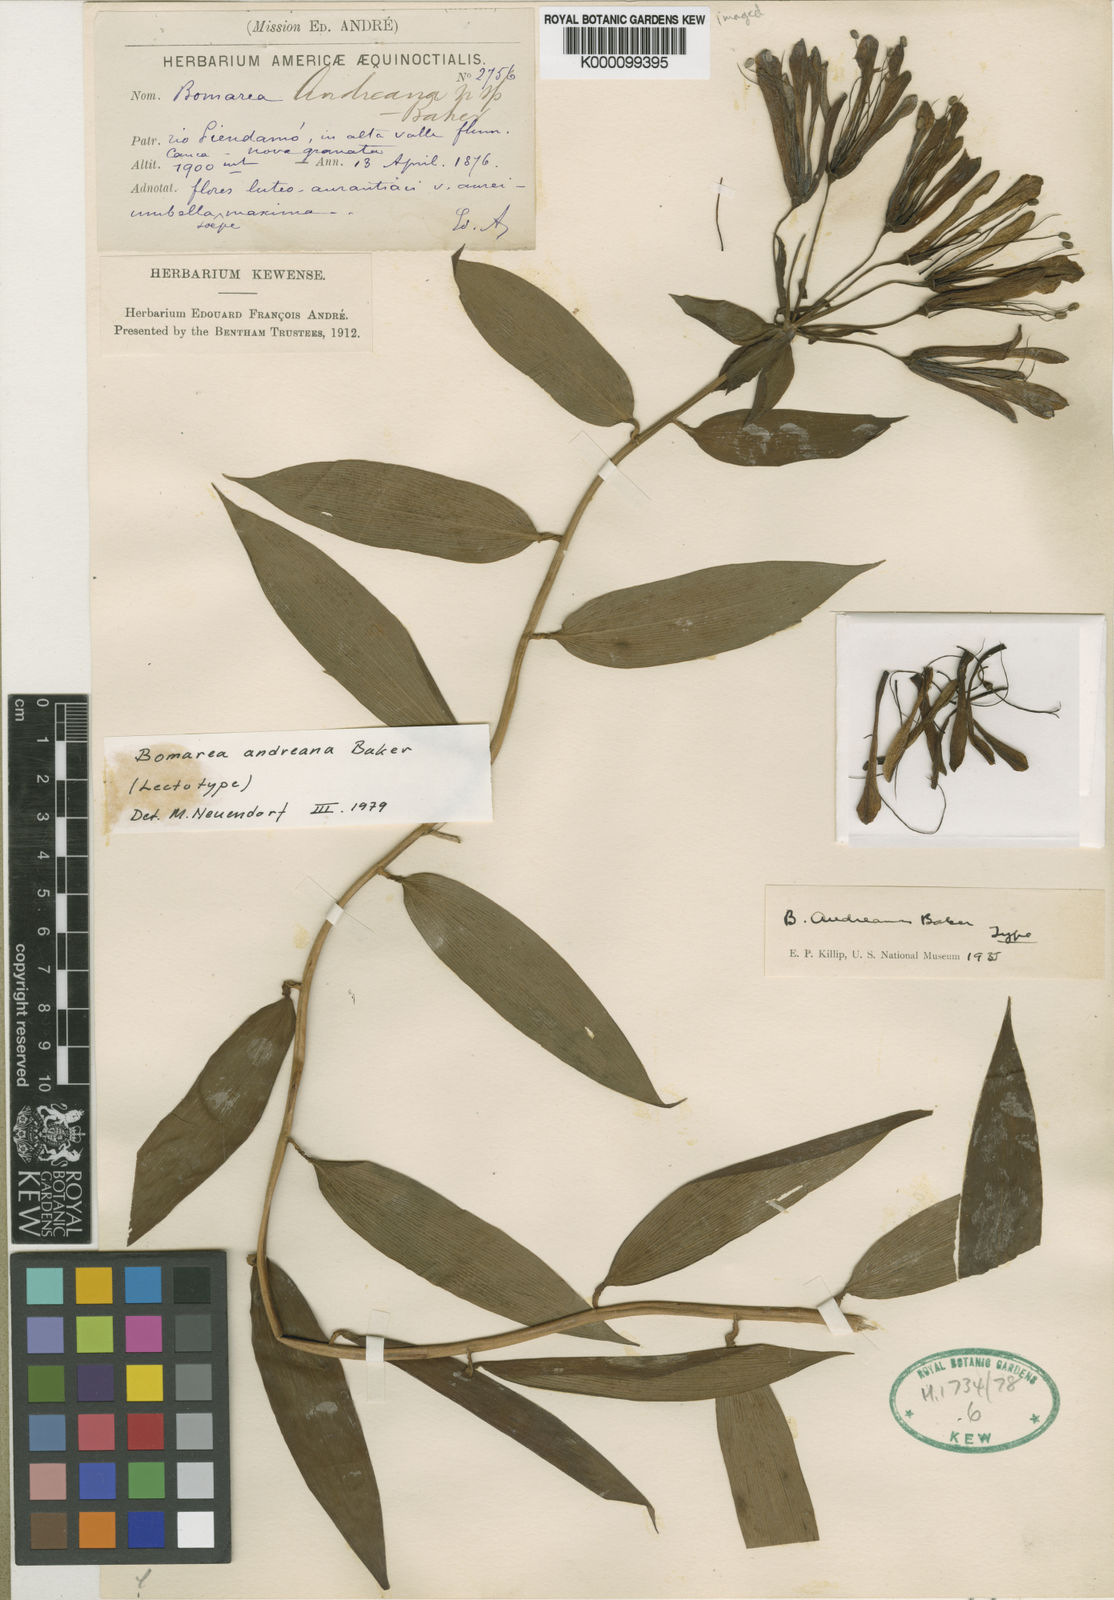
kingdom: Plantae
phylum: Tracheophyta
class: Liliopsida
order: Liliales
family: Alstroemeriaceae
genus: Bomarea
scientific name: Bomarea andreana
